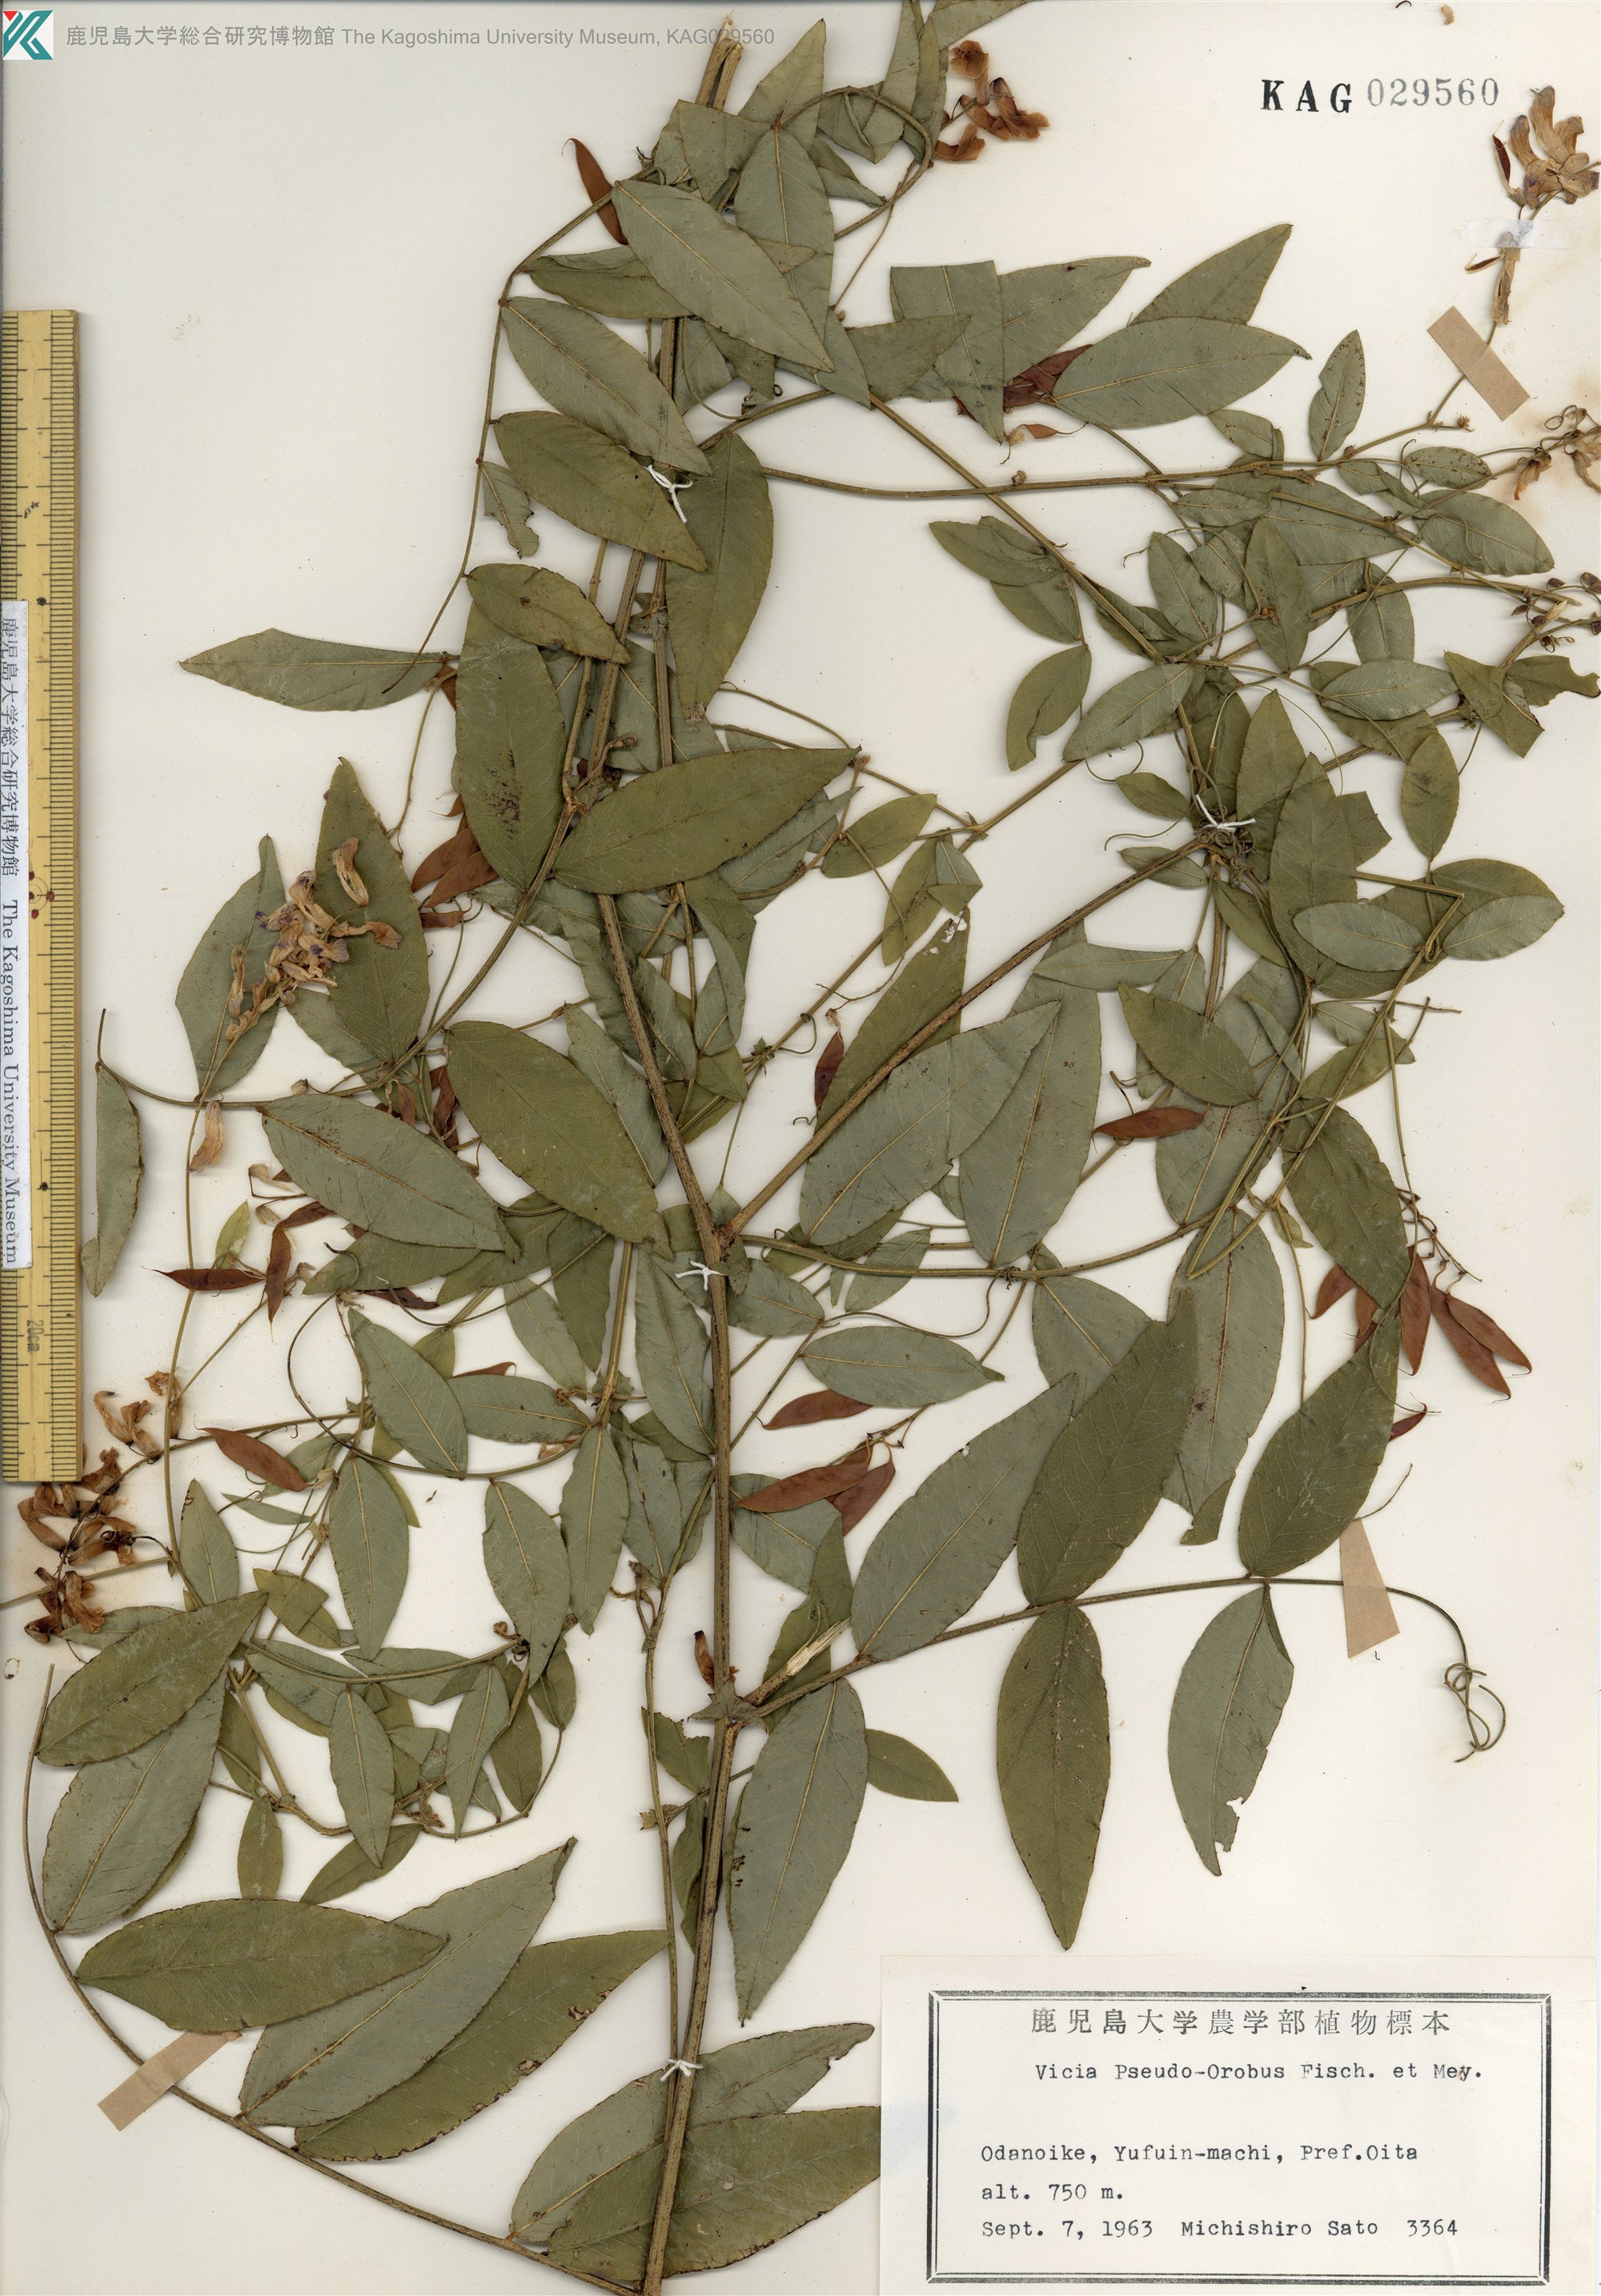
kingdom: Plantae
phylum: Tracheophyta
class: Magnoliopsida
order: Fabales
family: Fabaceae
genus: Vicia
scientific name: Vicia pseudo-orobus
